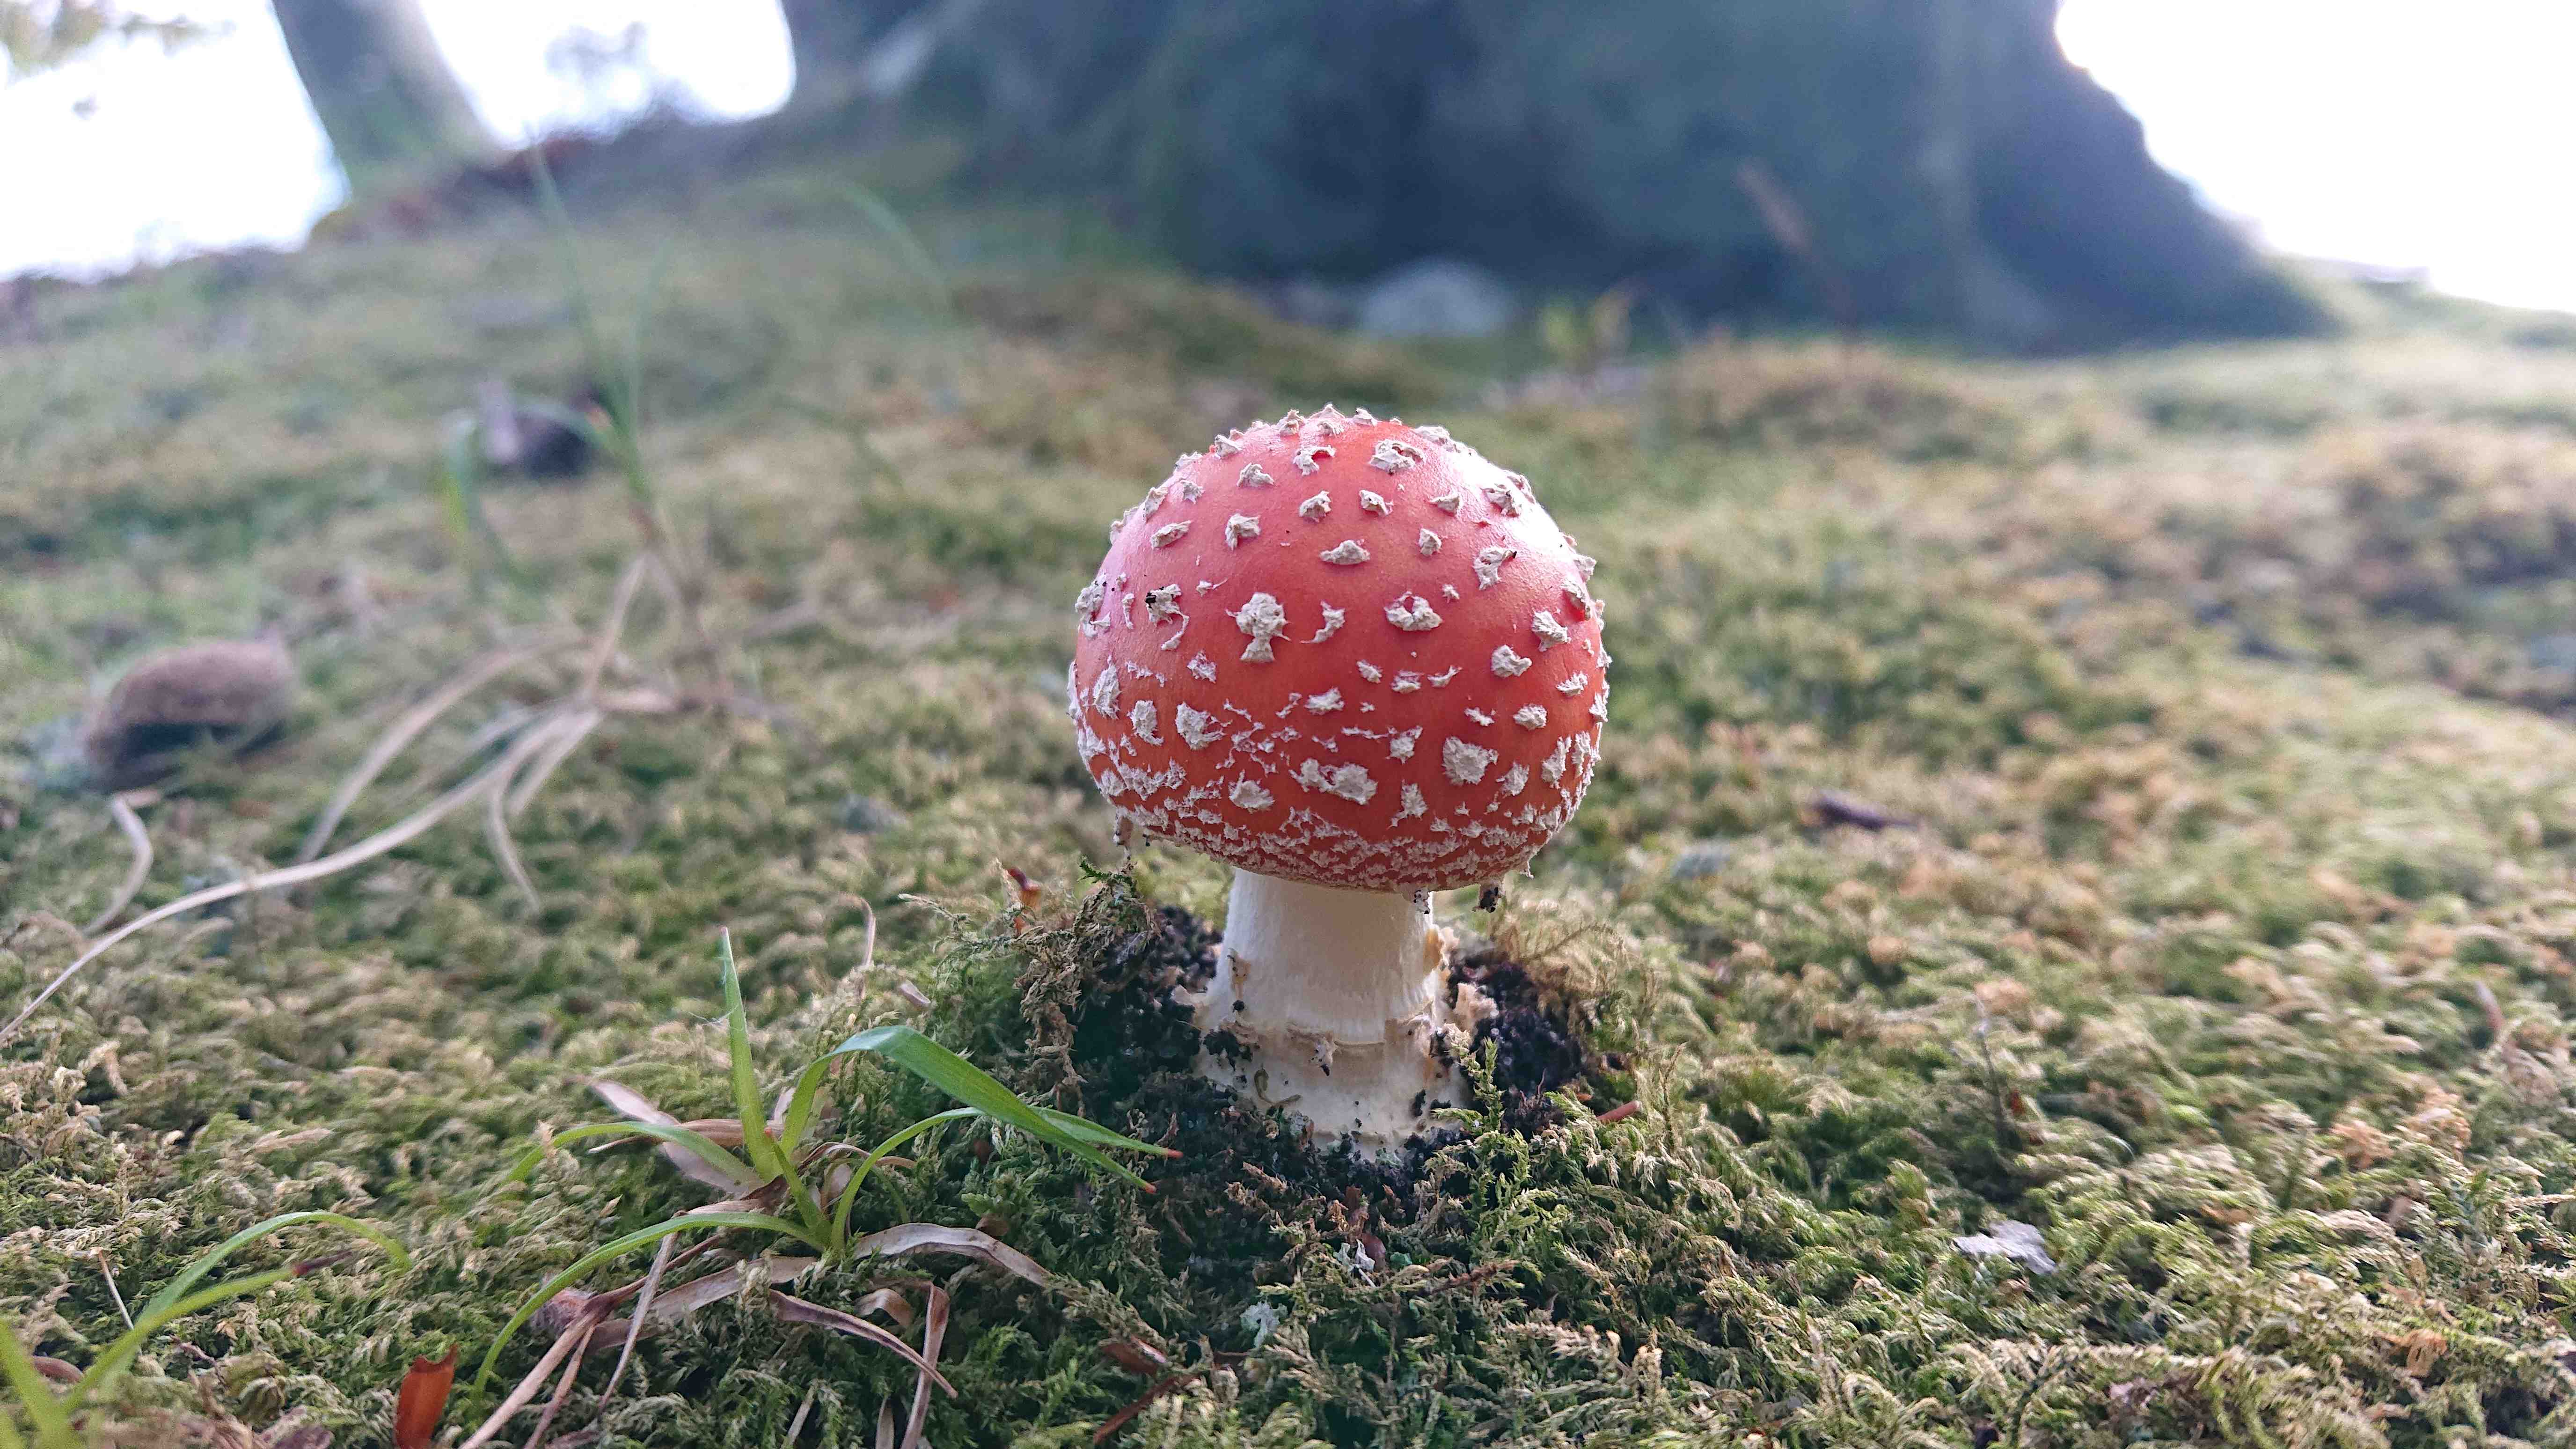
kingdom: Fungi
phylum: Basidiomycota
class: Agaricomycetes
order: Agaricales
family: Amanitaceae
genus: Amanita
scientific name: Amanita muscaria
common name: rød fluesvamp
